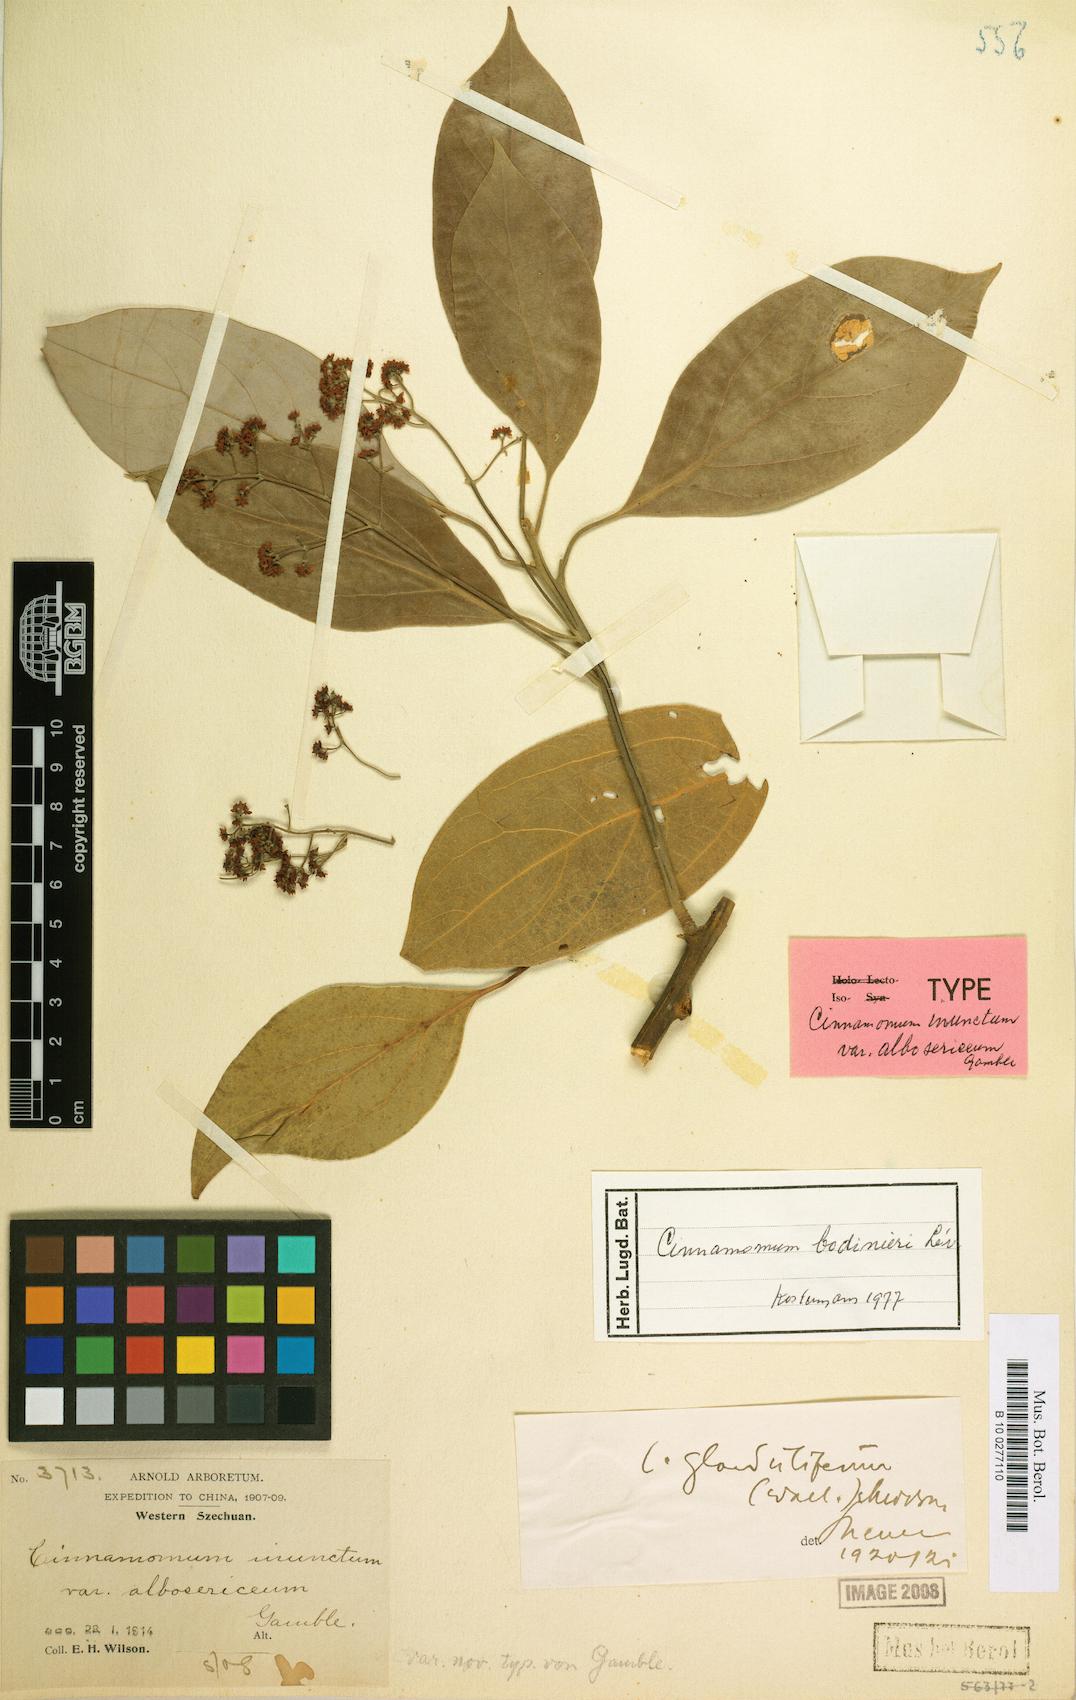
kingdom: Plantae
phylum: Tracheophyta
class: Magnoliopsida
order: Laurales
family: Lauraceae
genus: Cinnamomum
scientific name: Cinnamomum bodinieri
